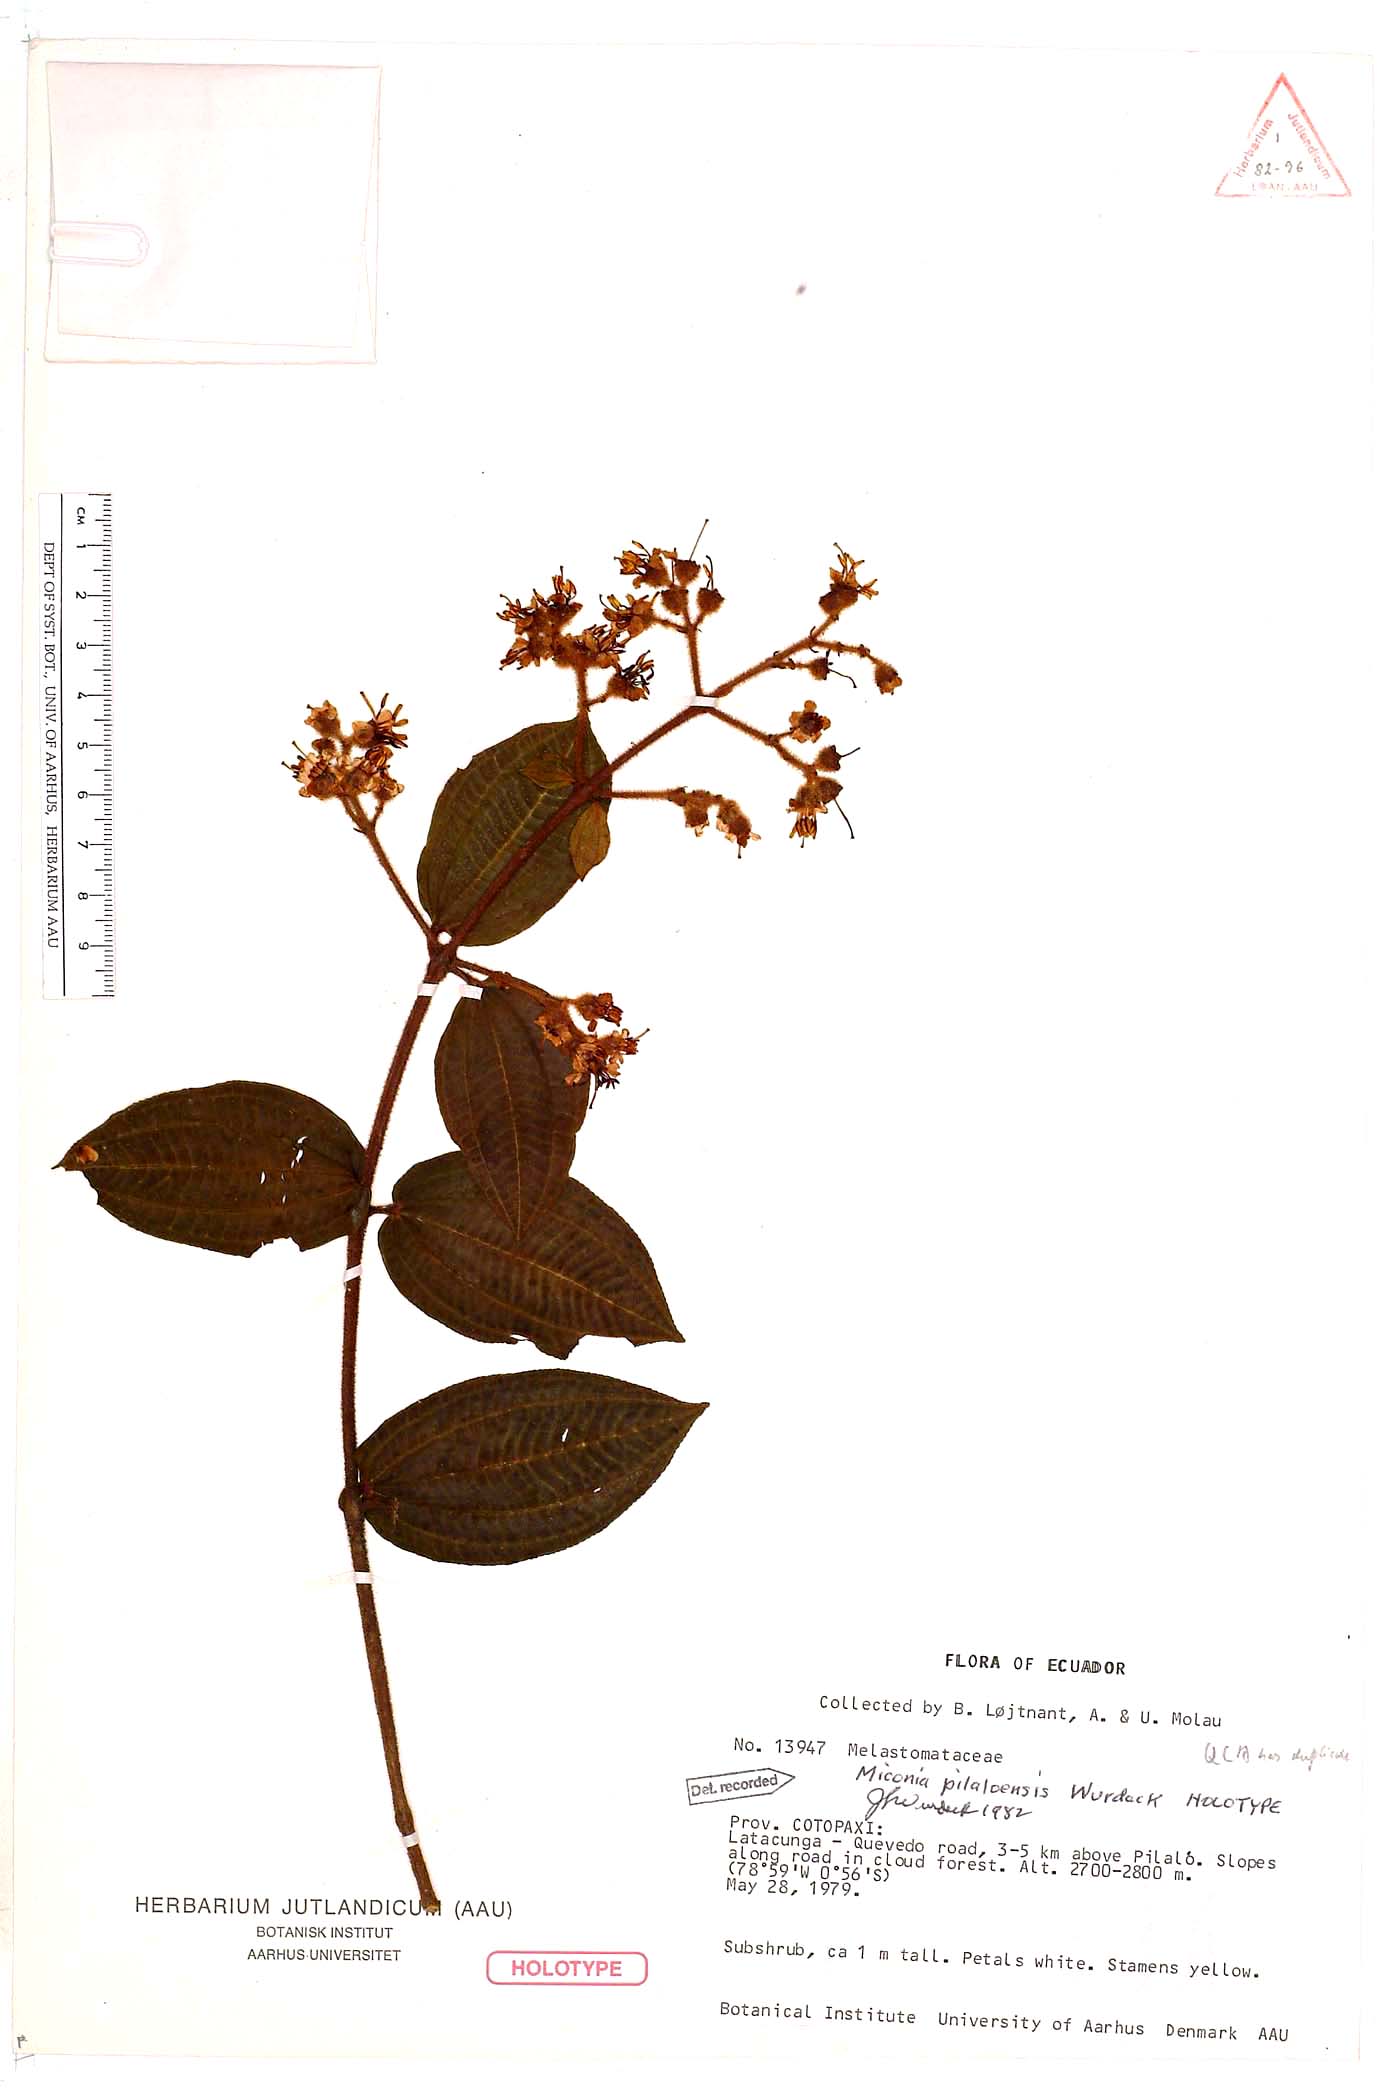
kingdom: Plantae
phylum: Tracheophyta
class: Magnoliopsida
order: Myrtales
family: Melastomataceae
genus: Miconia
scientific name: Miconia pilaloensis
